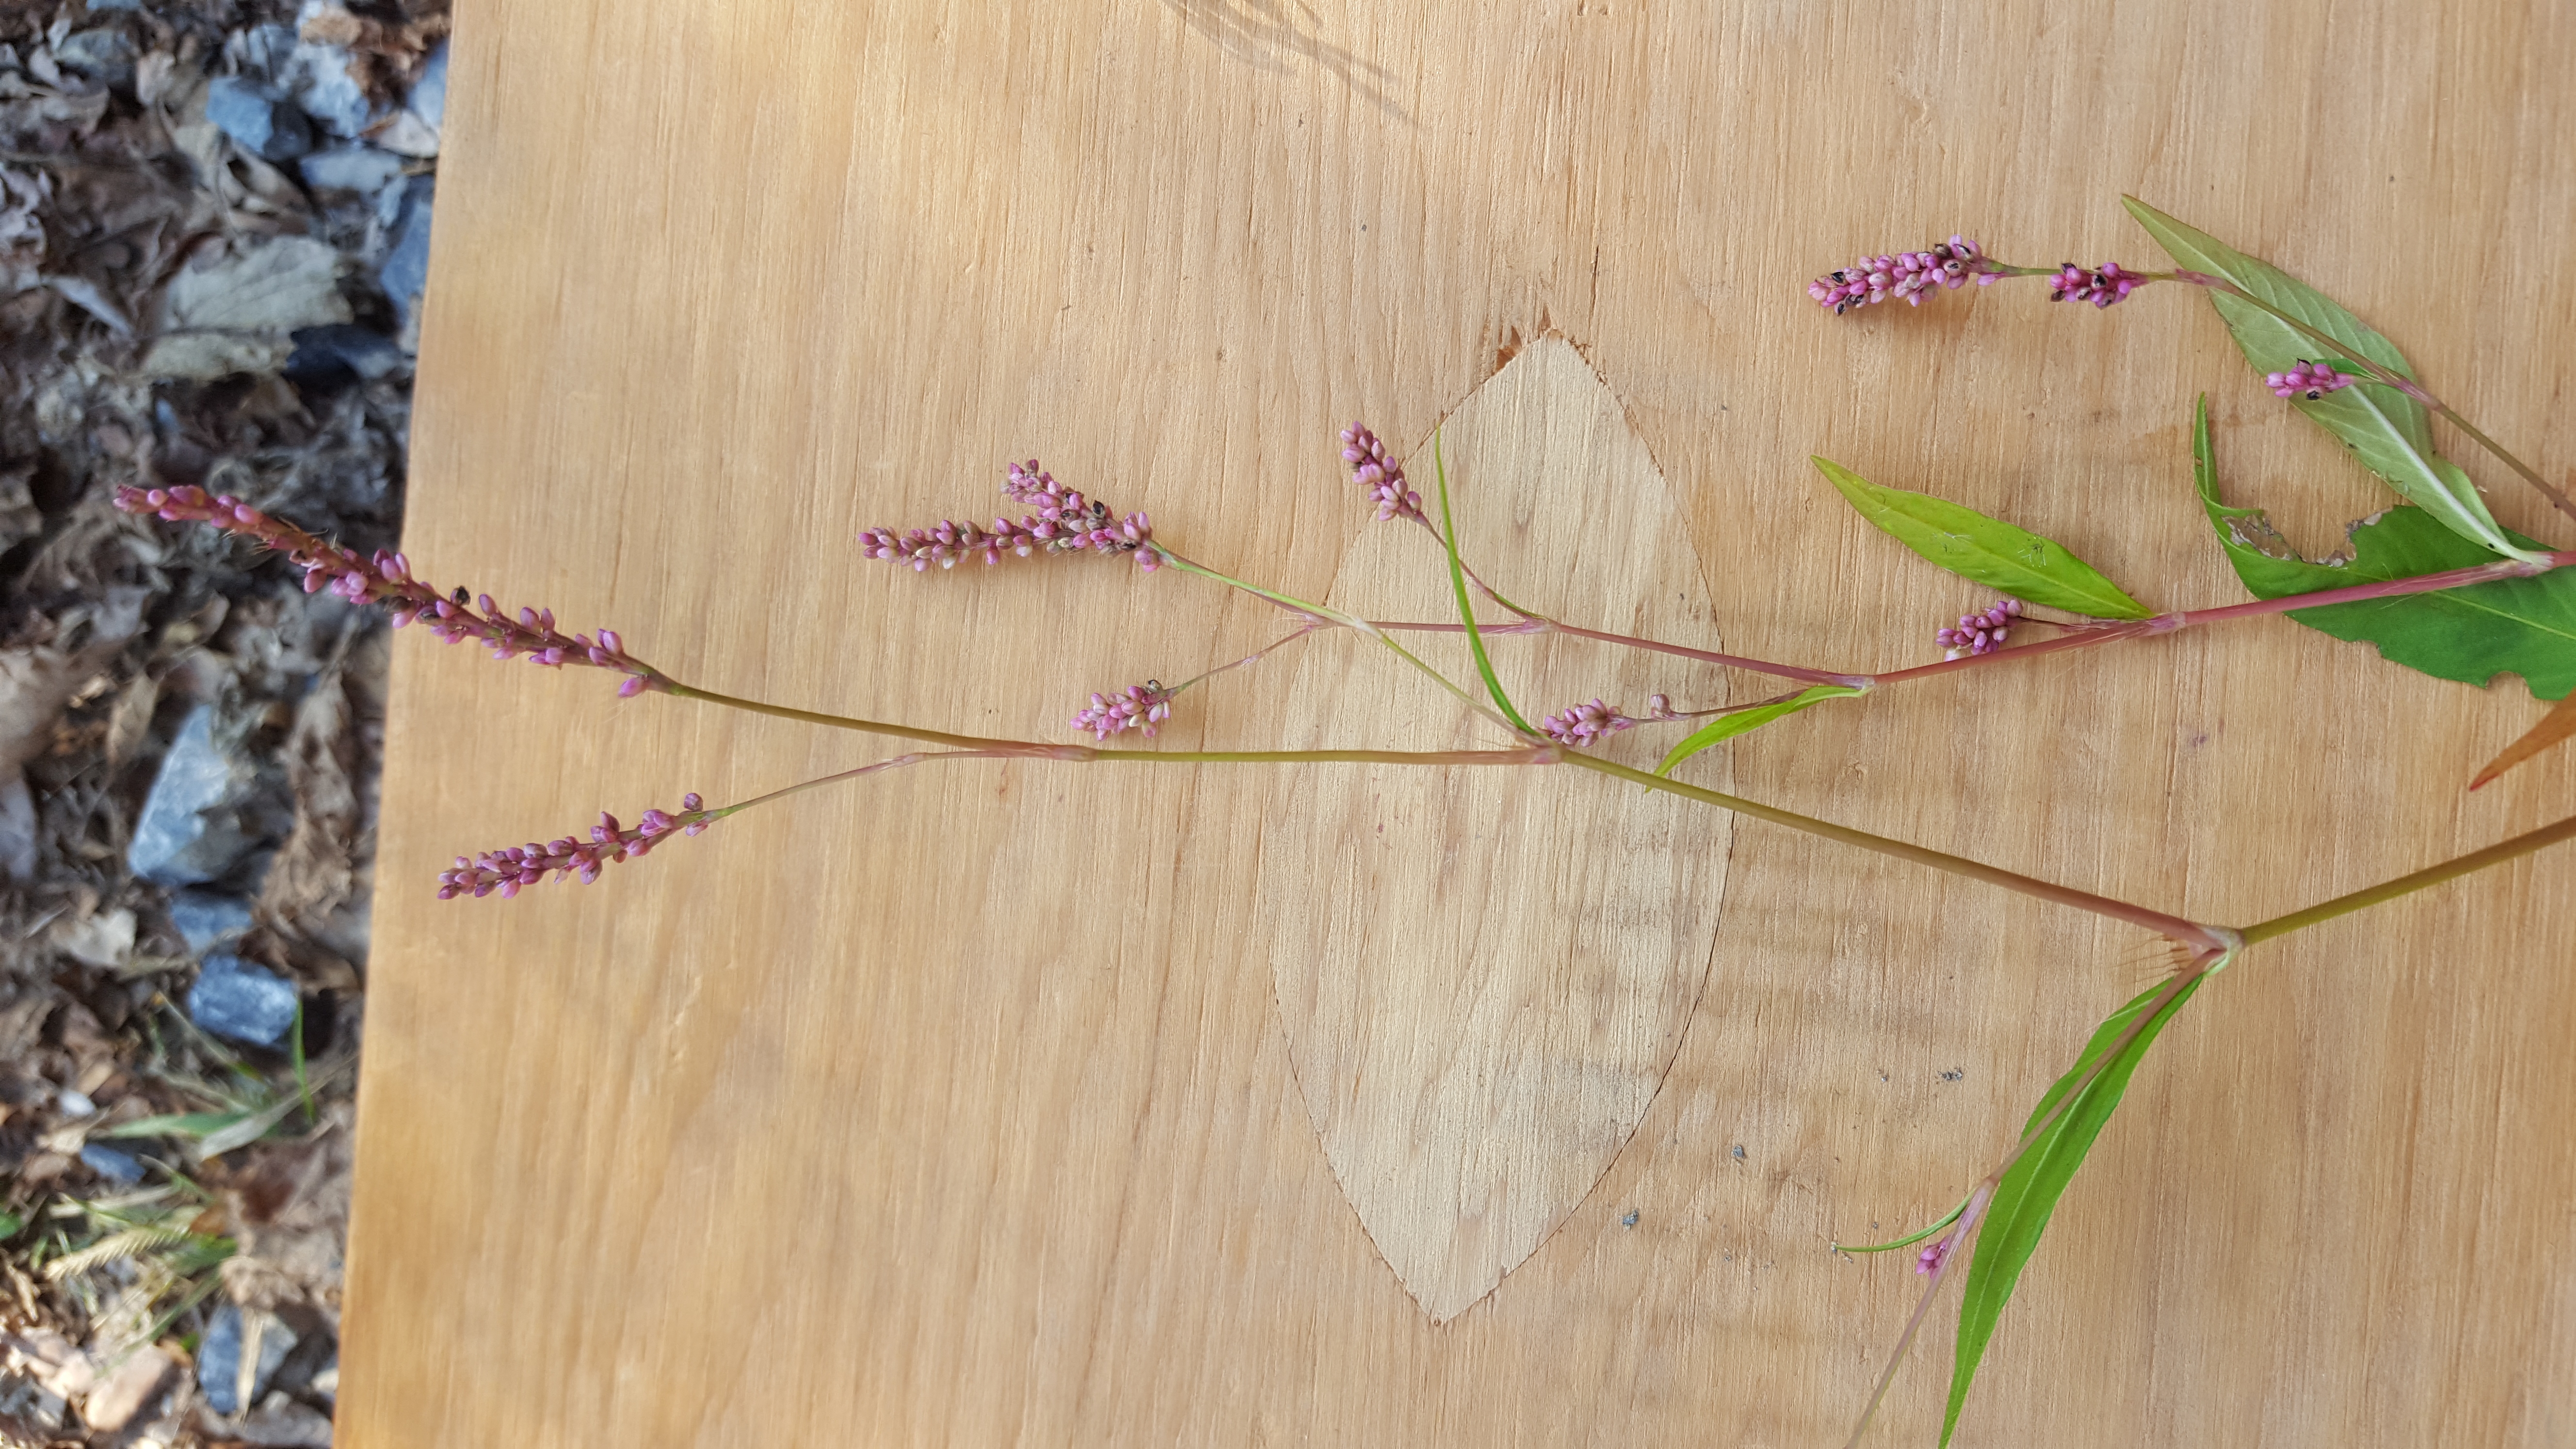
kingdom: Plantae
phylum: Tracheophyta
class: Magnoliopsida
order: Caryophyllales
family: Polygonaceae
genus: Persicaria
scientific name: Persicaria longiseta
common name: Low smartweed
